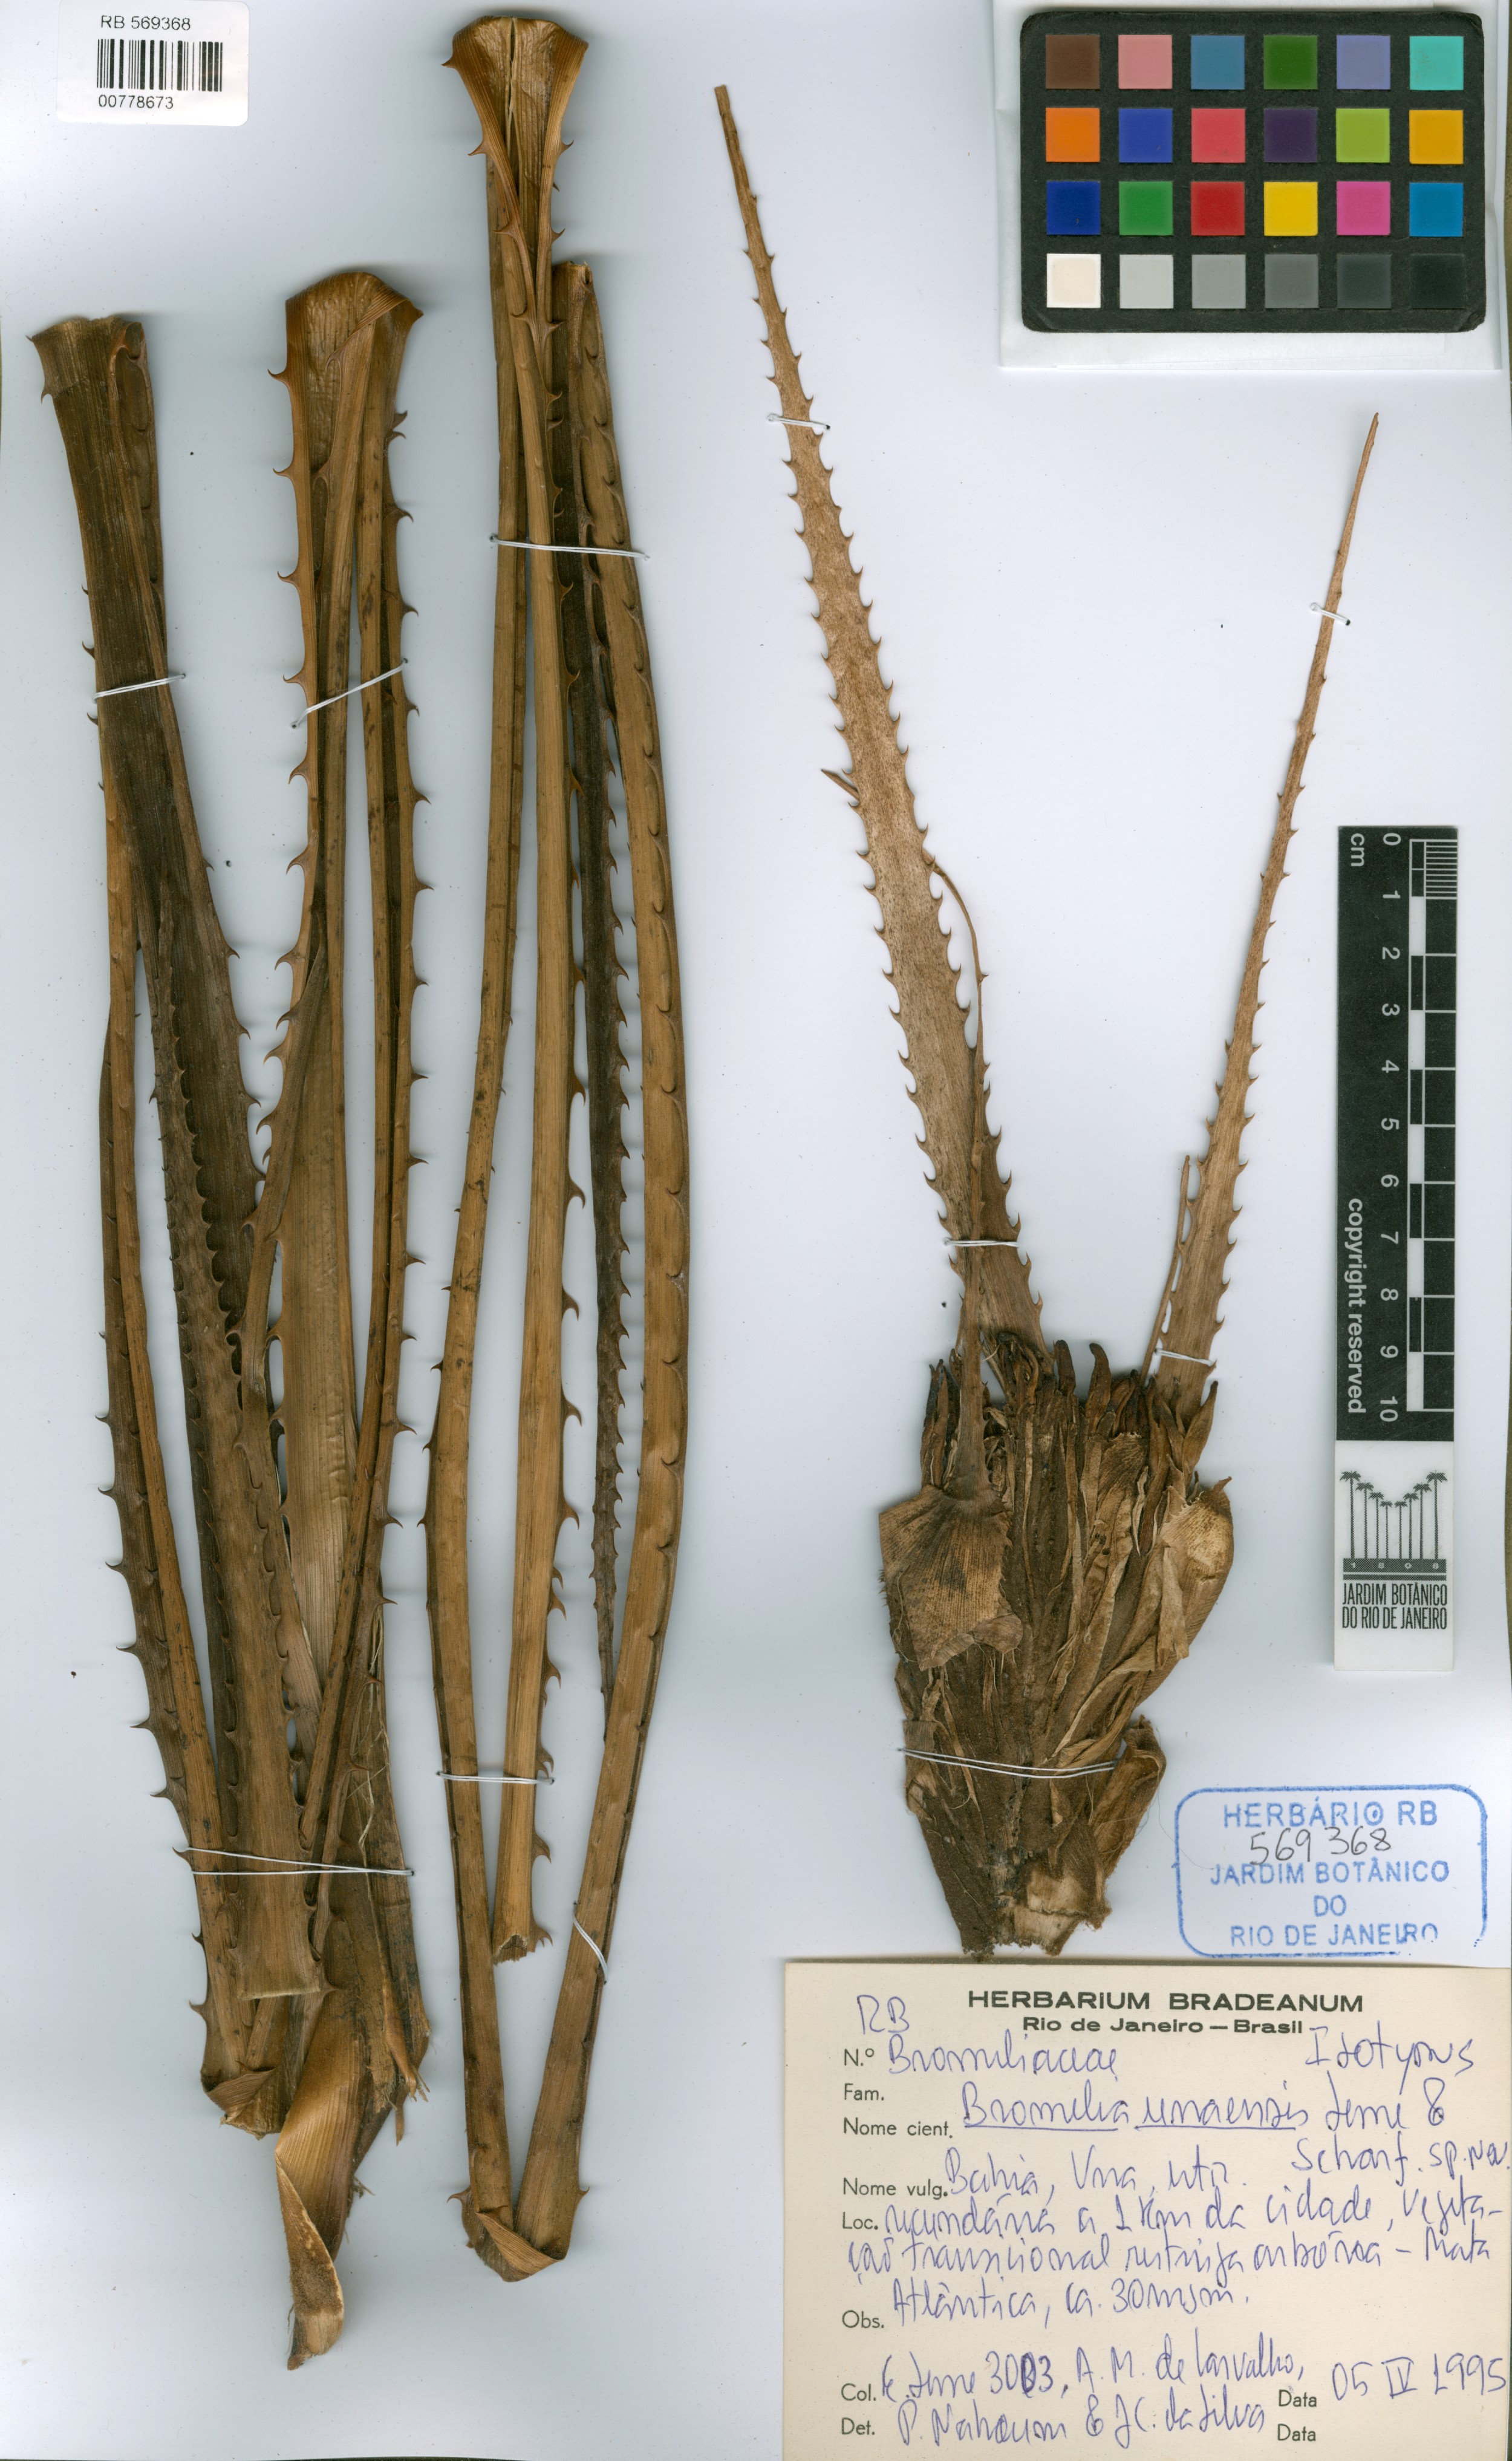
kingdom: Plantae
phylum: Tracheophyta
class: Liliopsida
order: Poales
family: Bromeliaceae
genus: Bromelia
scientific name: Bromelia unaensis
